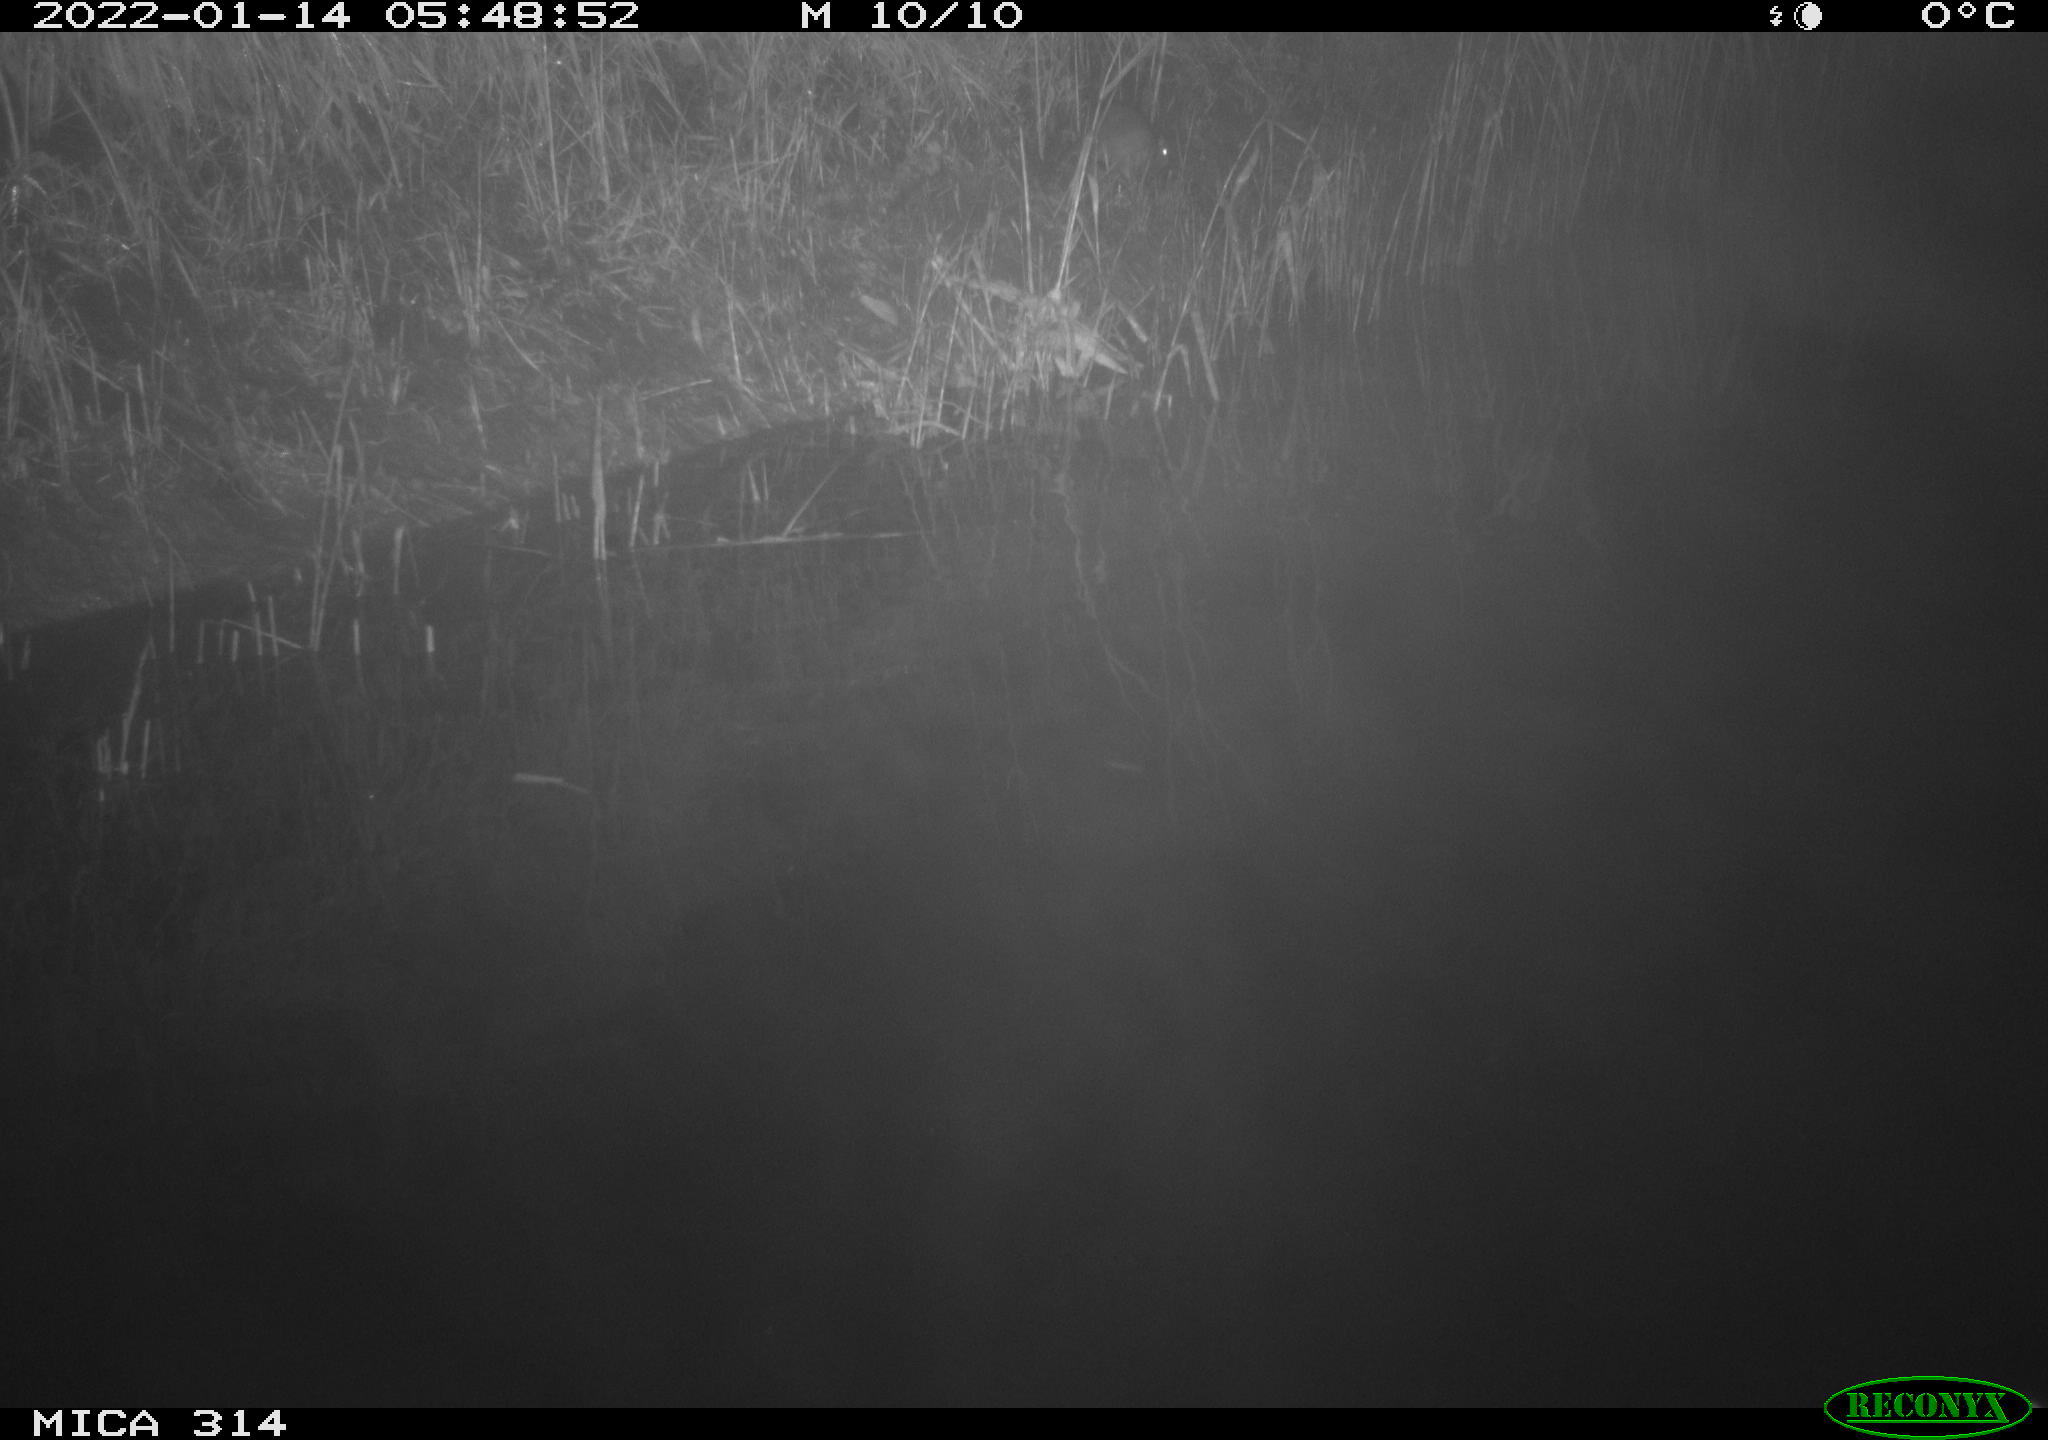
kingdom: Animalia
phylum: Chordata
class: Mammalia
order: Rodentia
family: Muridae
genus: Rattus
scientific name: Rattus norvegicus
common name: Brown rat
